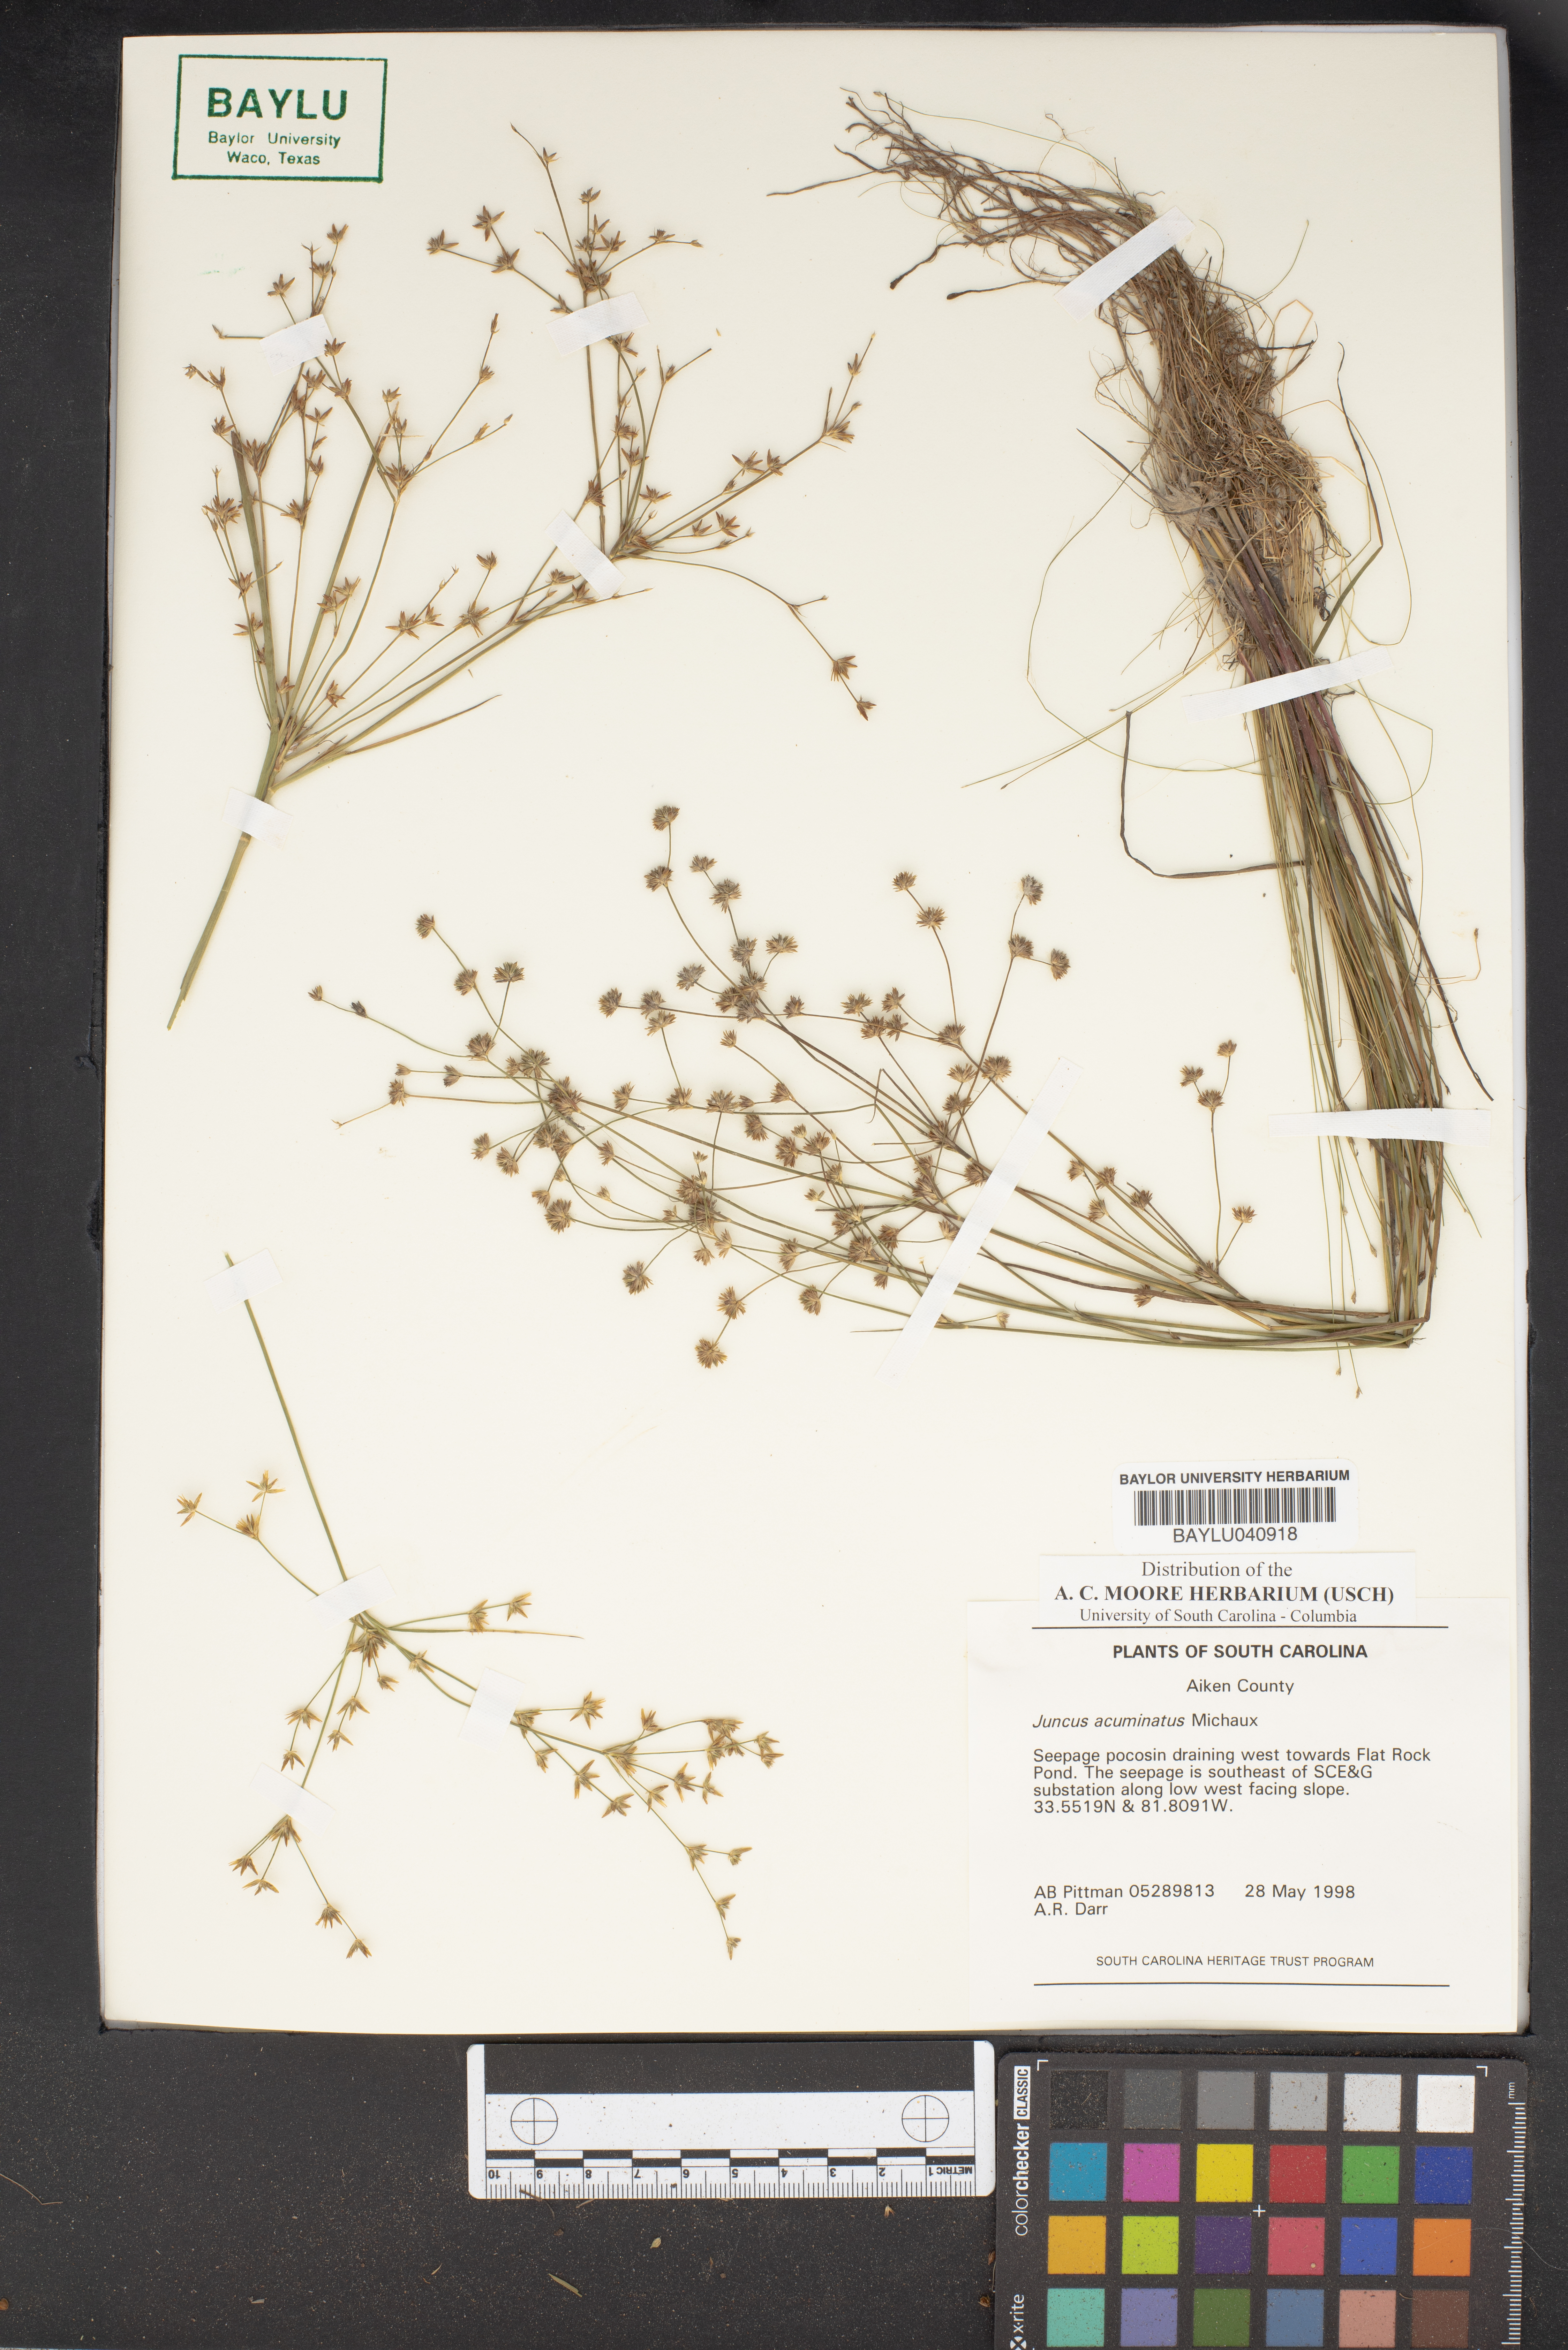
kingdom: Plantae
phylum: Tracheophyta
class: Liliopsida
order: Poales
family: Juncaceae
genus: Juncus
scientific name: Juncus acuminatus
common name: Knotty-leaved rush
